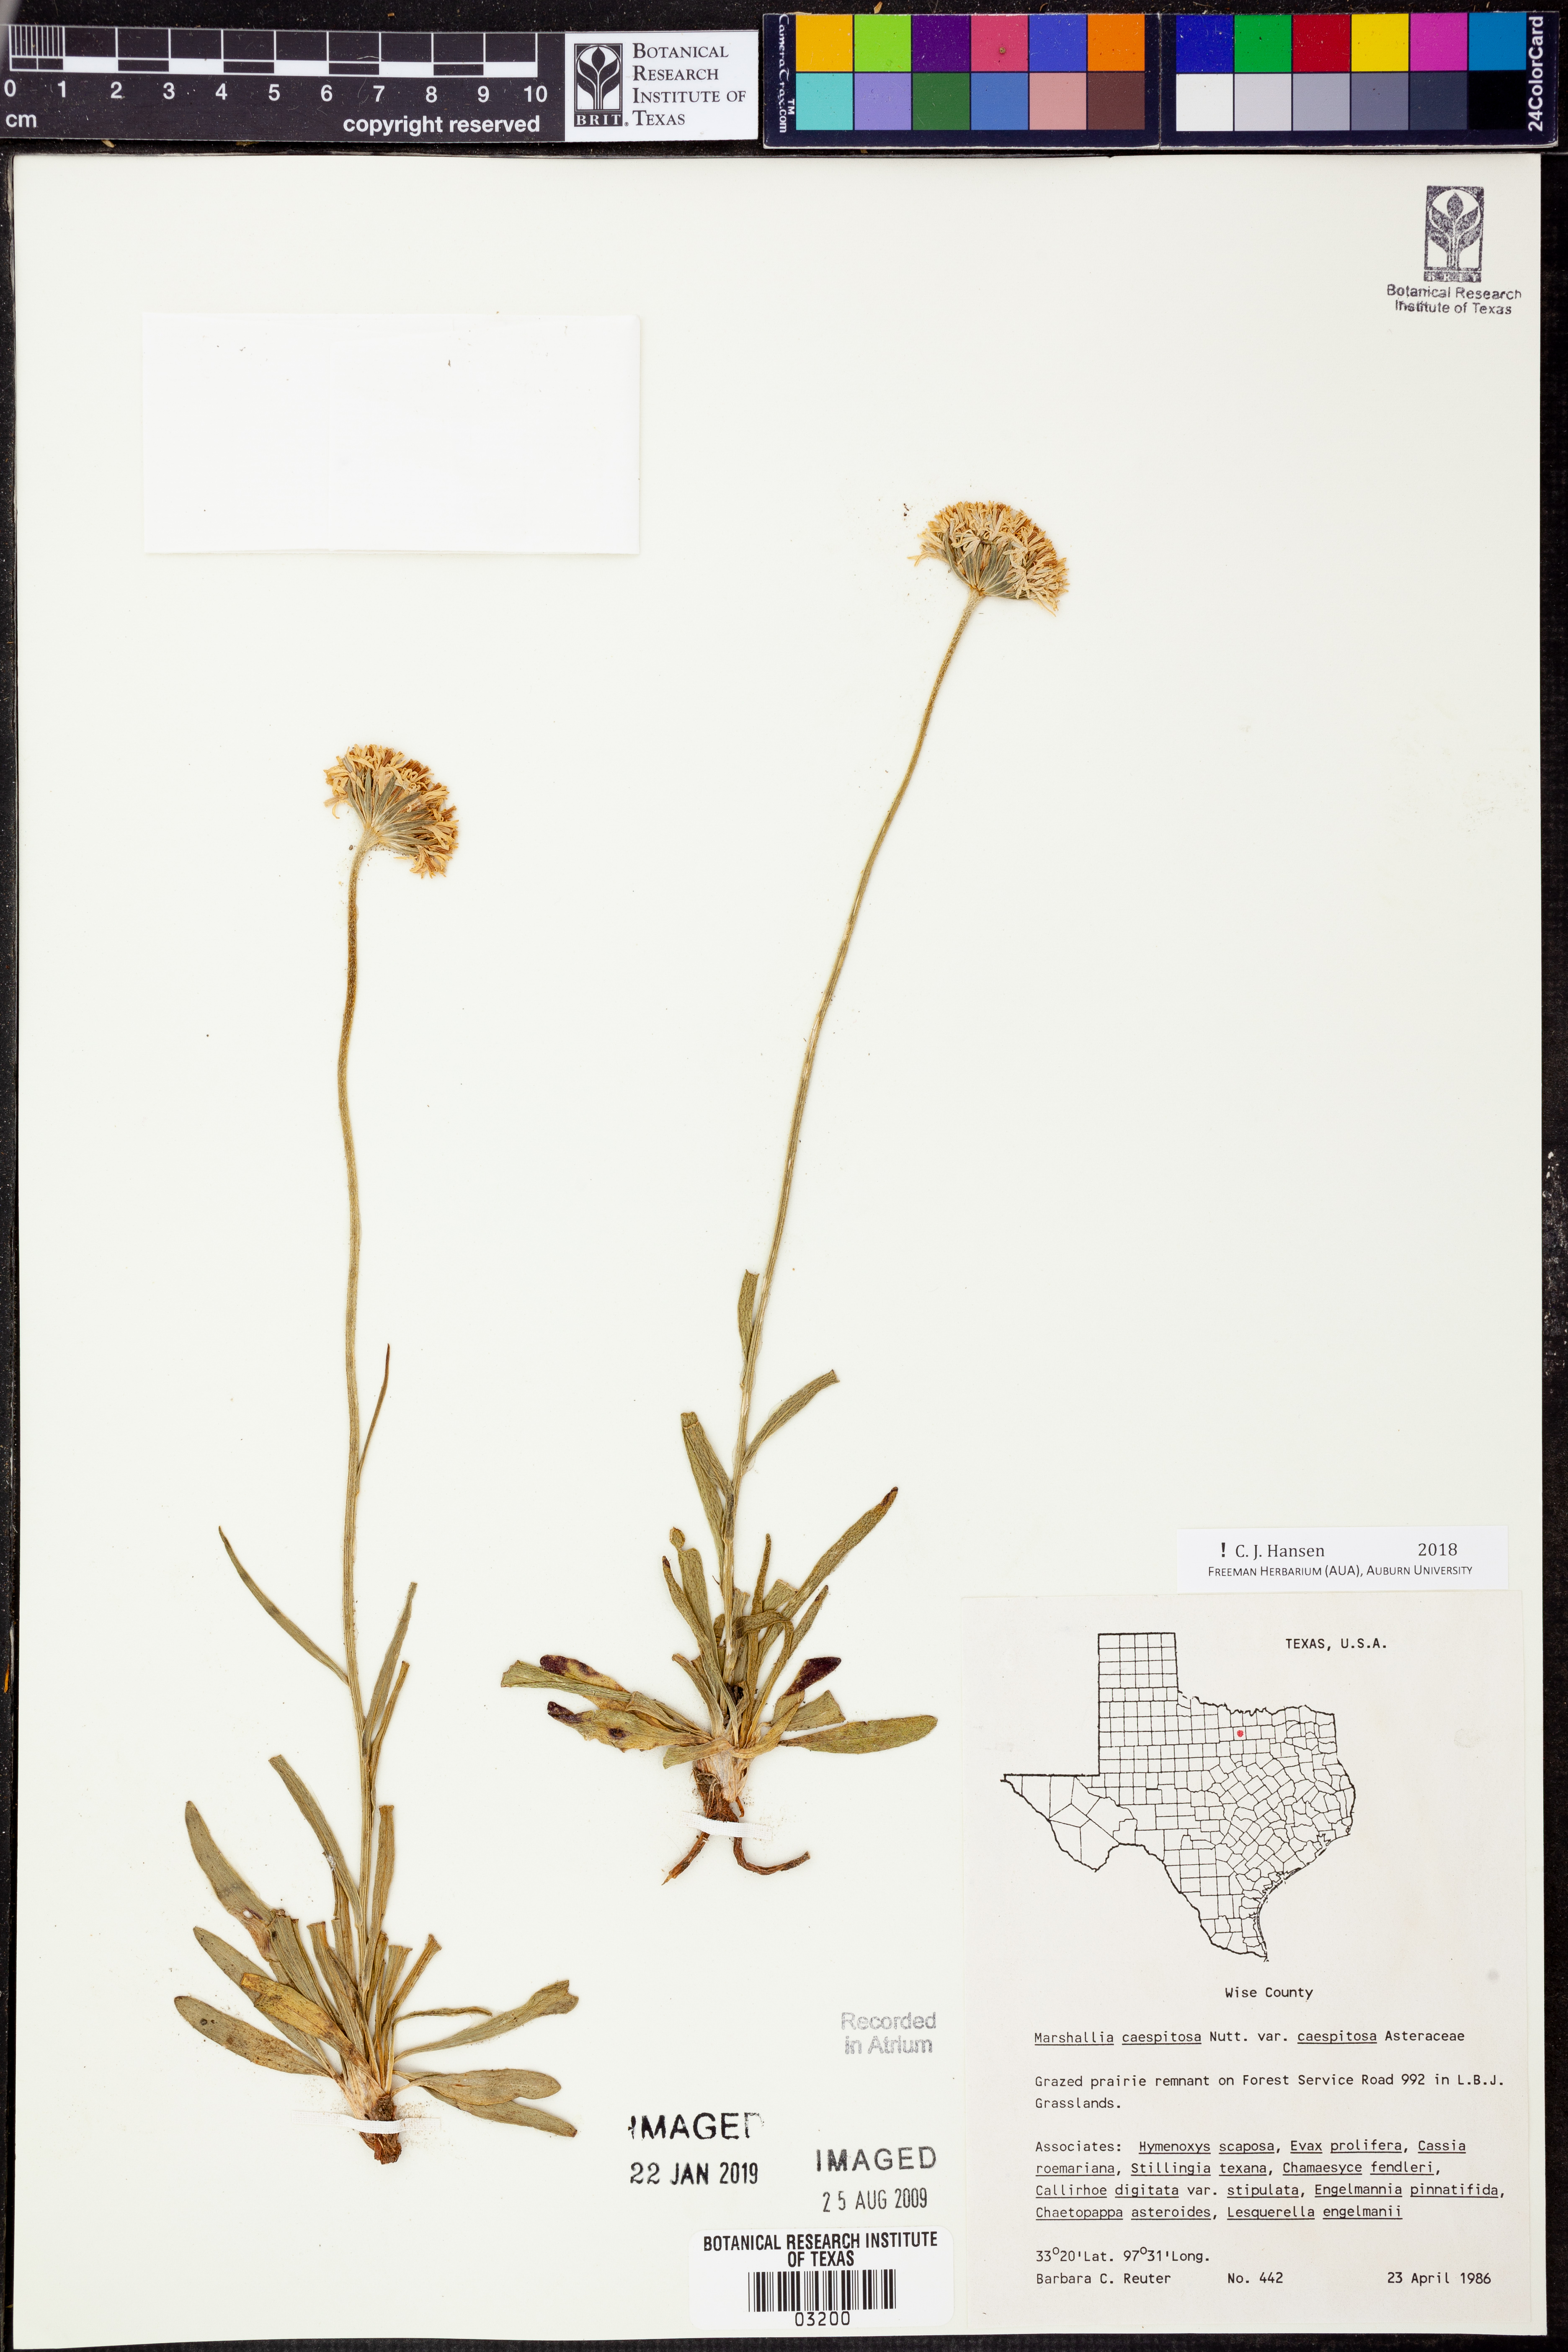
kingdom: Plantae
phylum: Tracheophyta
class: Magnoliopsida
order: Asterales
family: Asteraceae
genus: Marshallia
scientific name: Marshallia caespitosa
